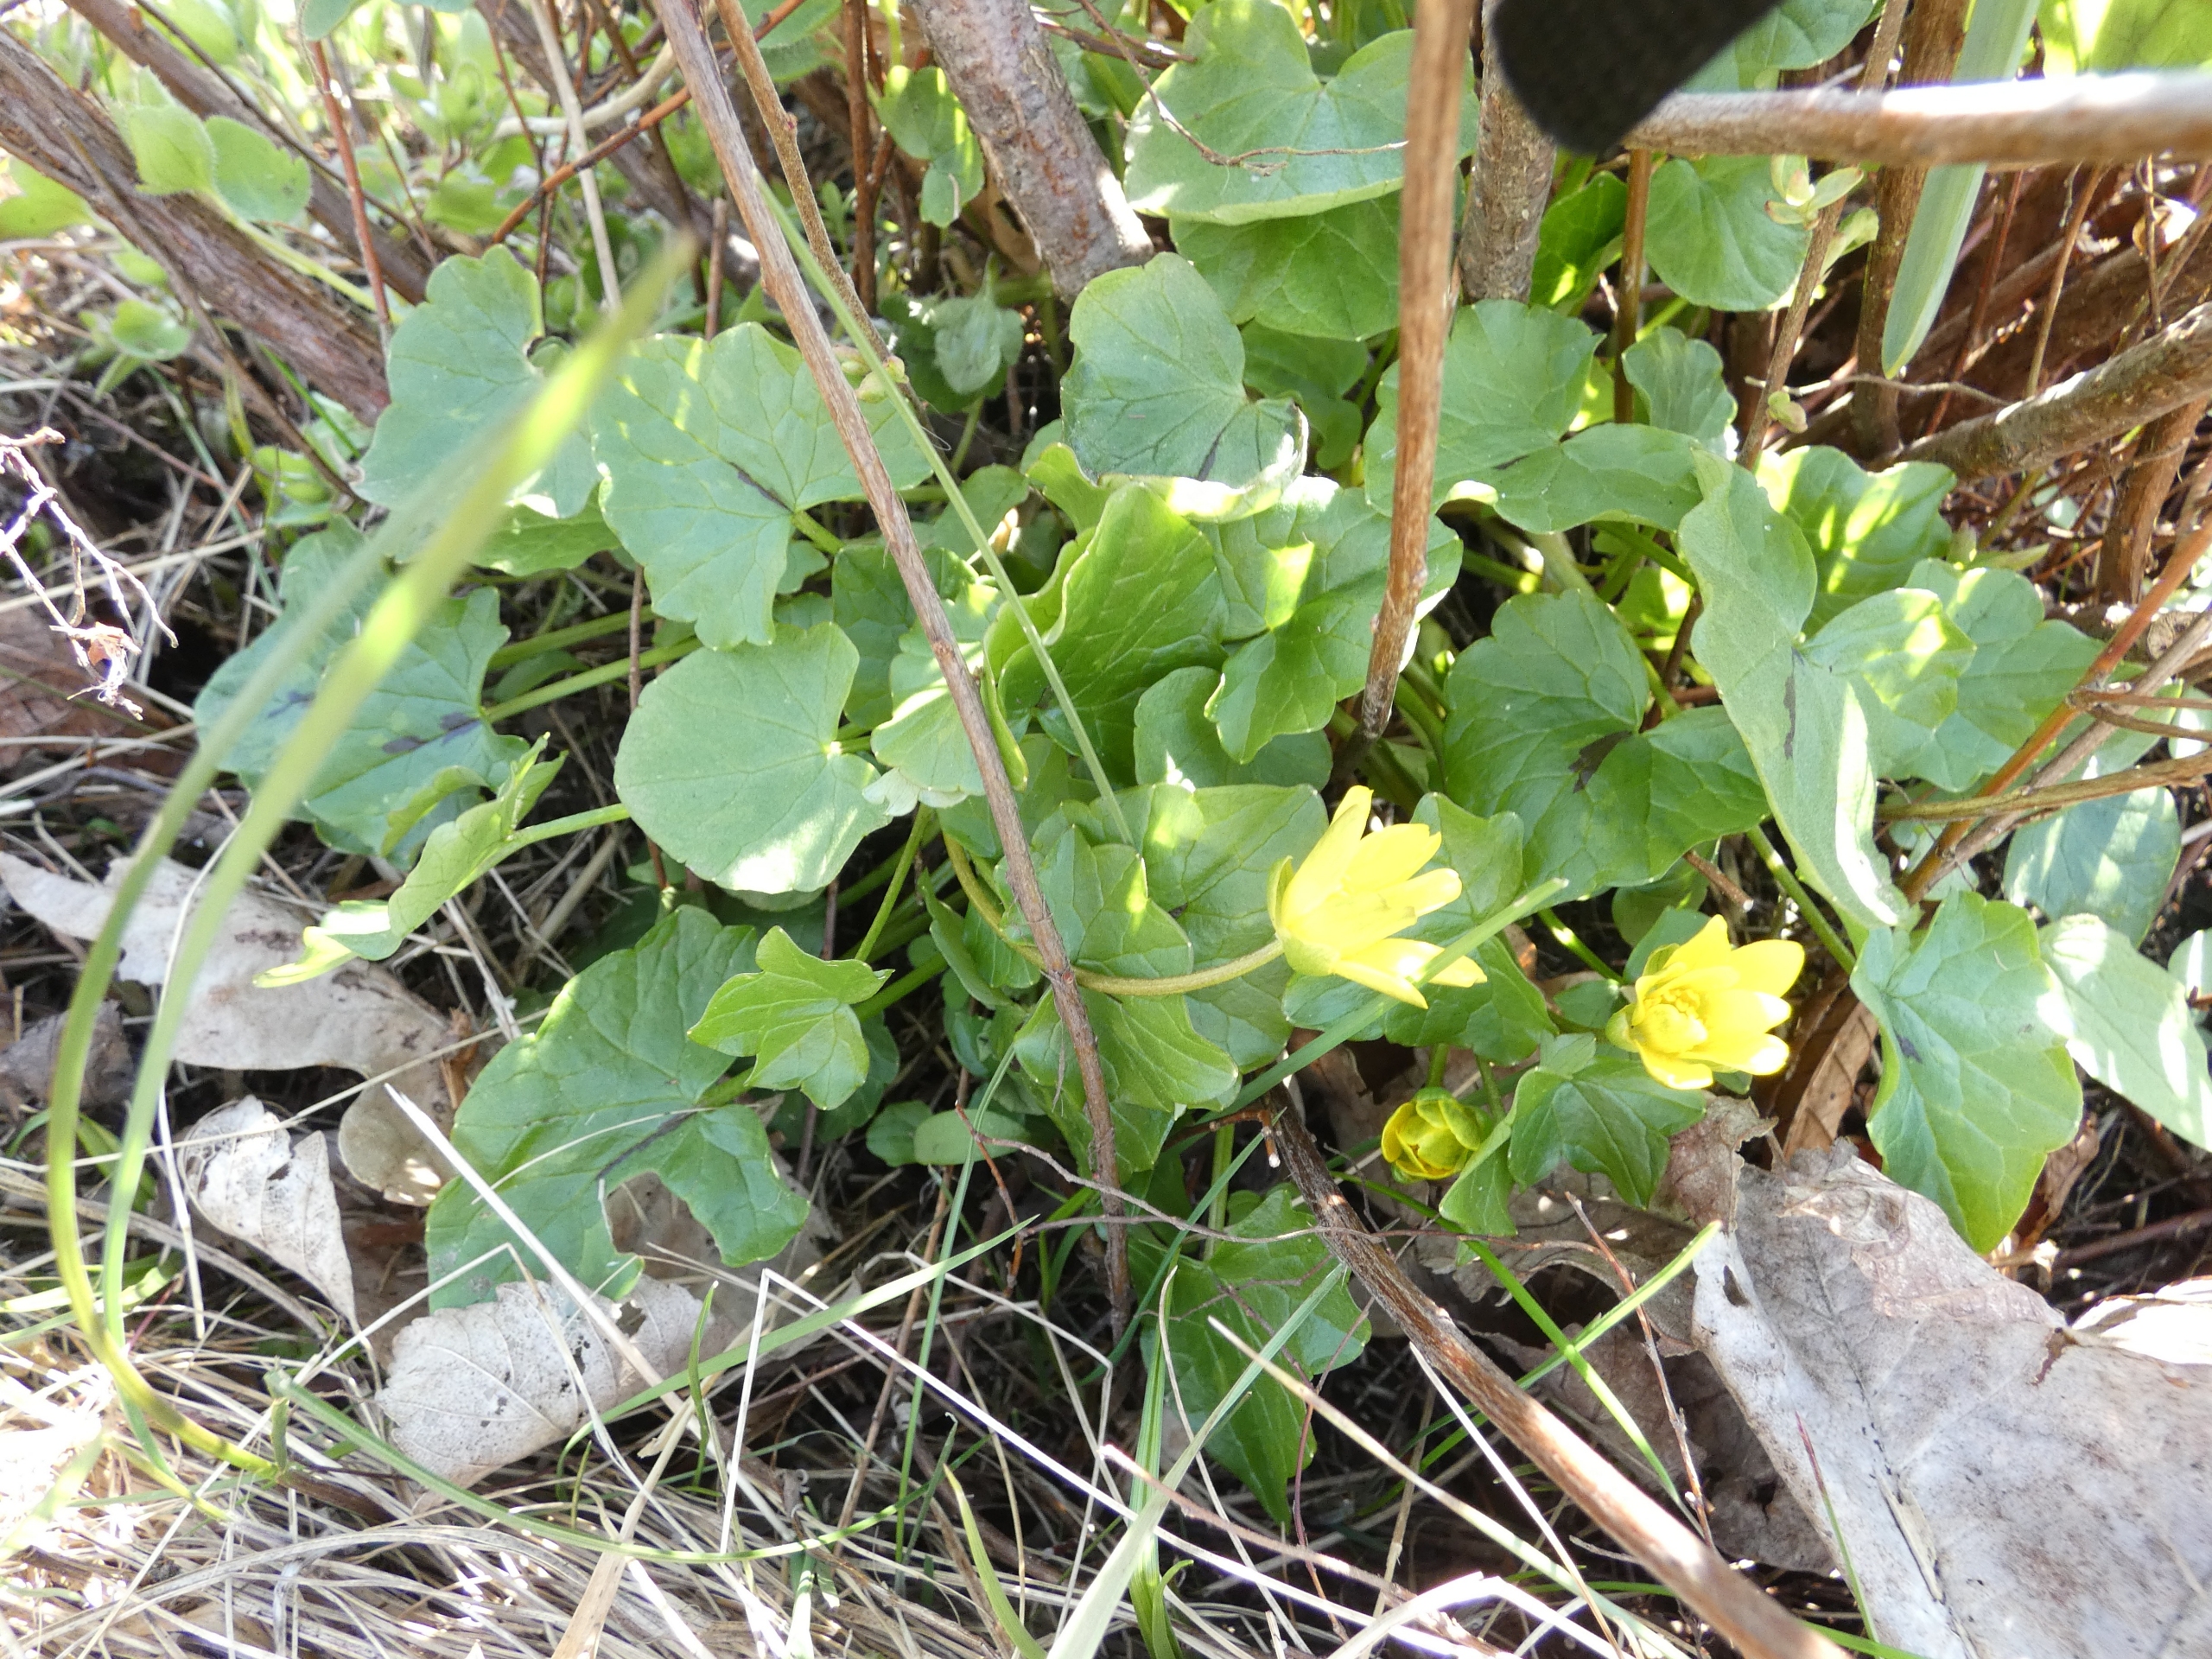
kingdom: Plantae
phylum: Tracheophyta
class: Magnoliopsida
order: Ranunculales
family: Ranunculaceae
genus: Ficaria
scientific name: Ficaria verna
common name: Vorterod
